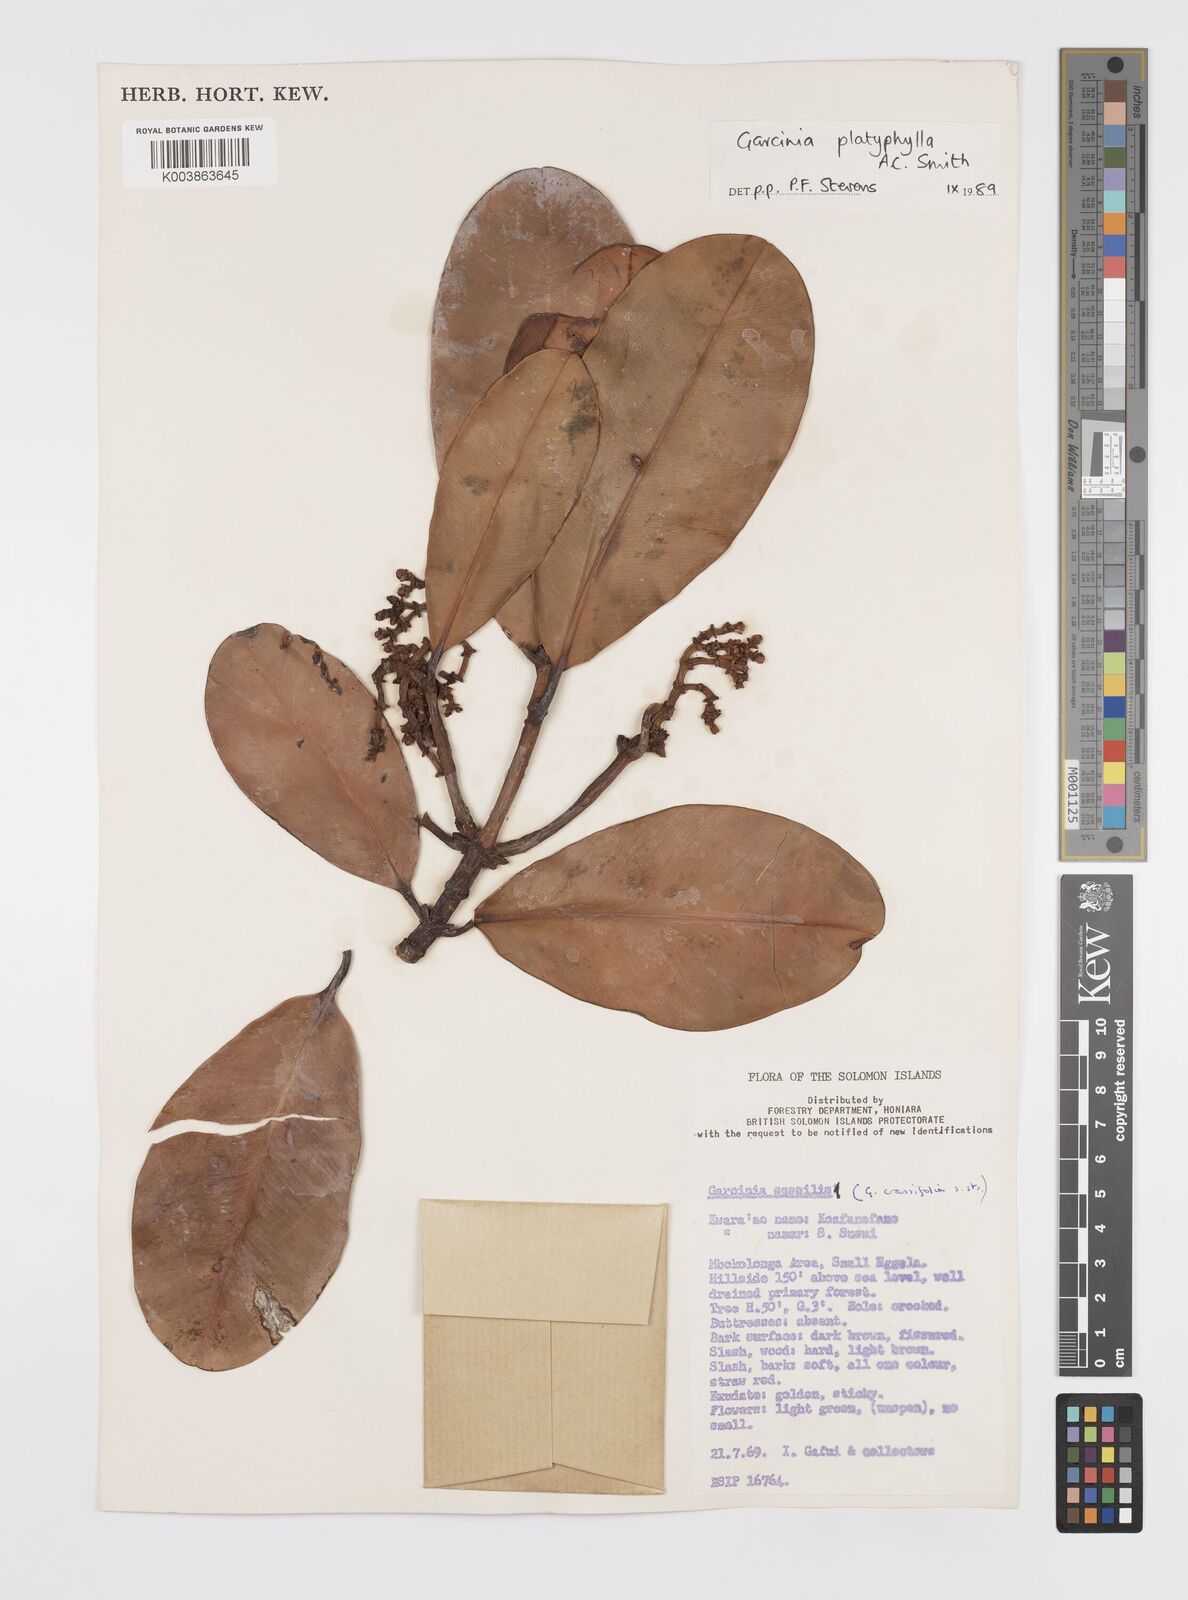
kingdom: Plantae
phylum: Tracheophyta
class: Magnoliopsida
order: Malpighiales
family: Clusiaceae
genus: Garcinia
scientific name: Garcinia platyphylla
